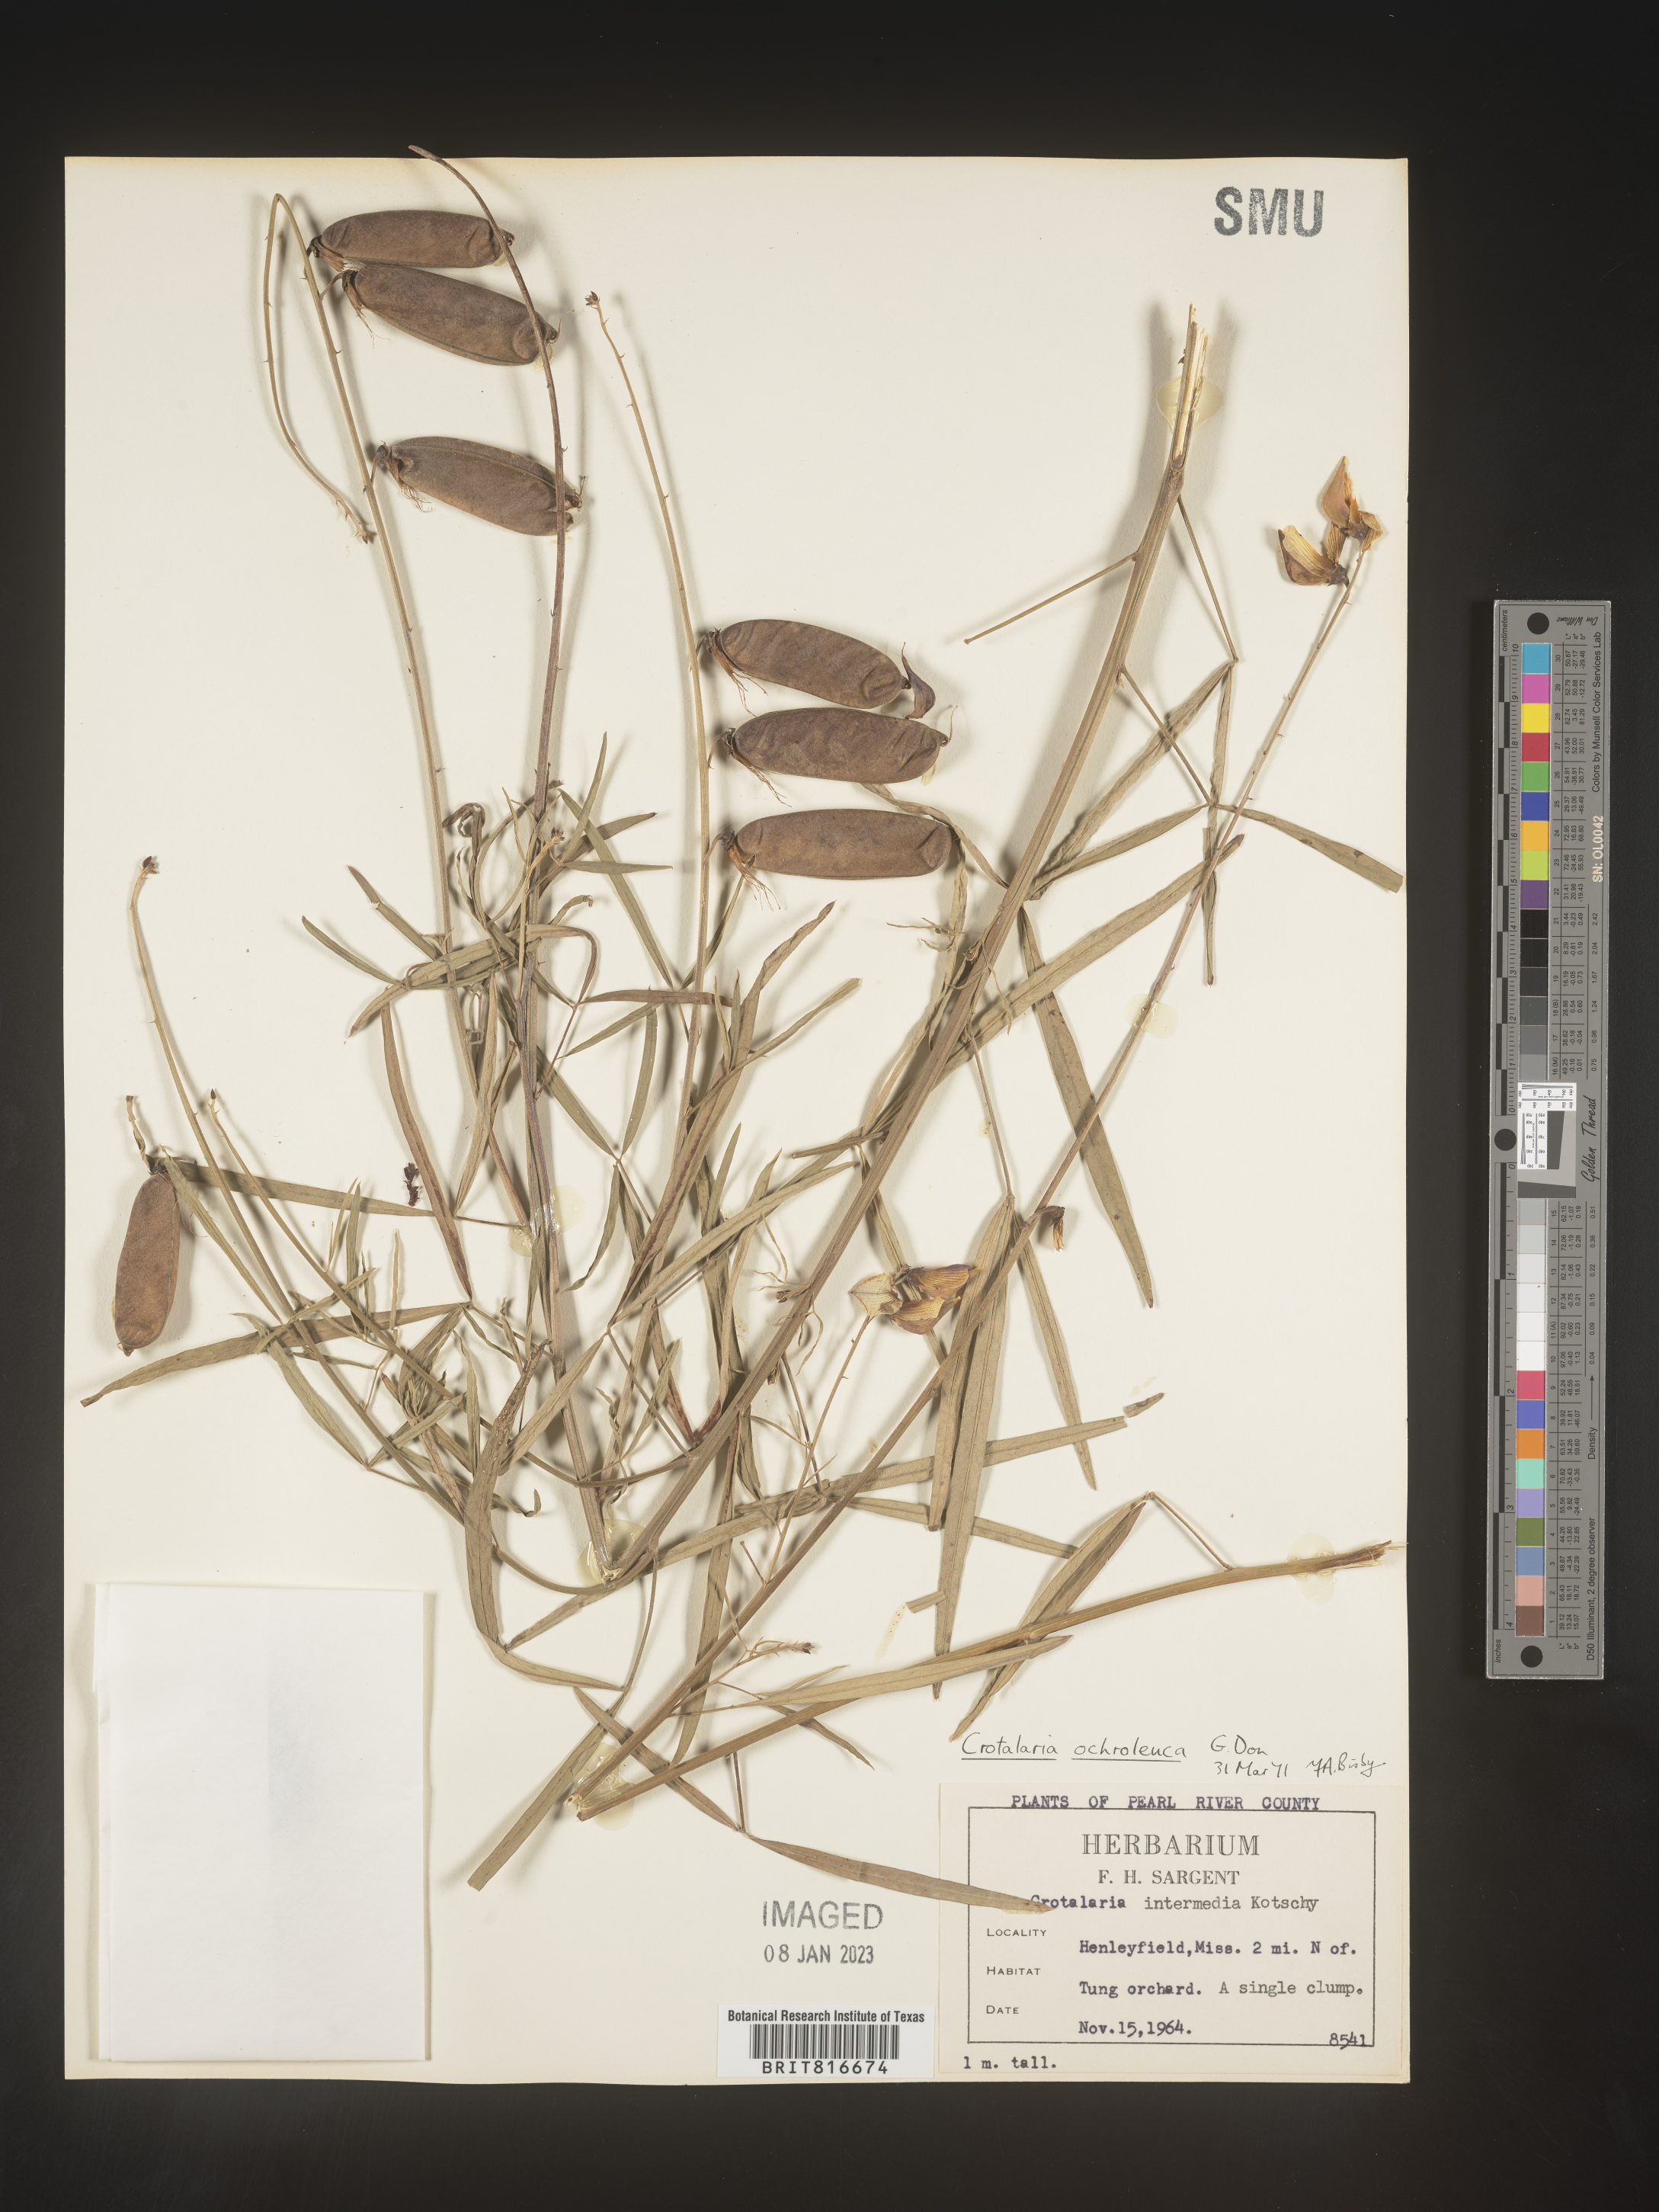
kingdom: Plantae
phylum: Tracheophyta
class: Magnoliopsida
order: Fabales
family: Fabaceae
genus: Crotalaria
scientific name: Crotalaria ochroleuca
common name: Slender leaf rattlebox
